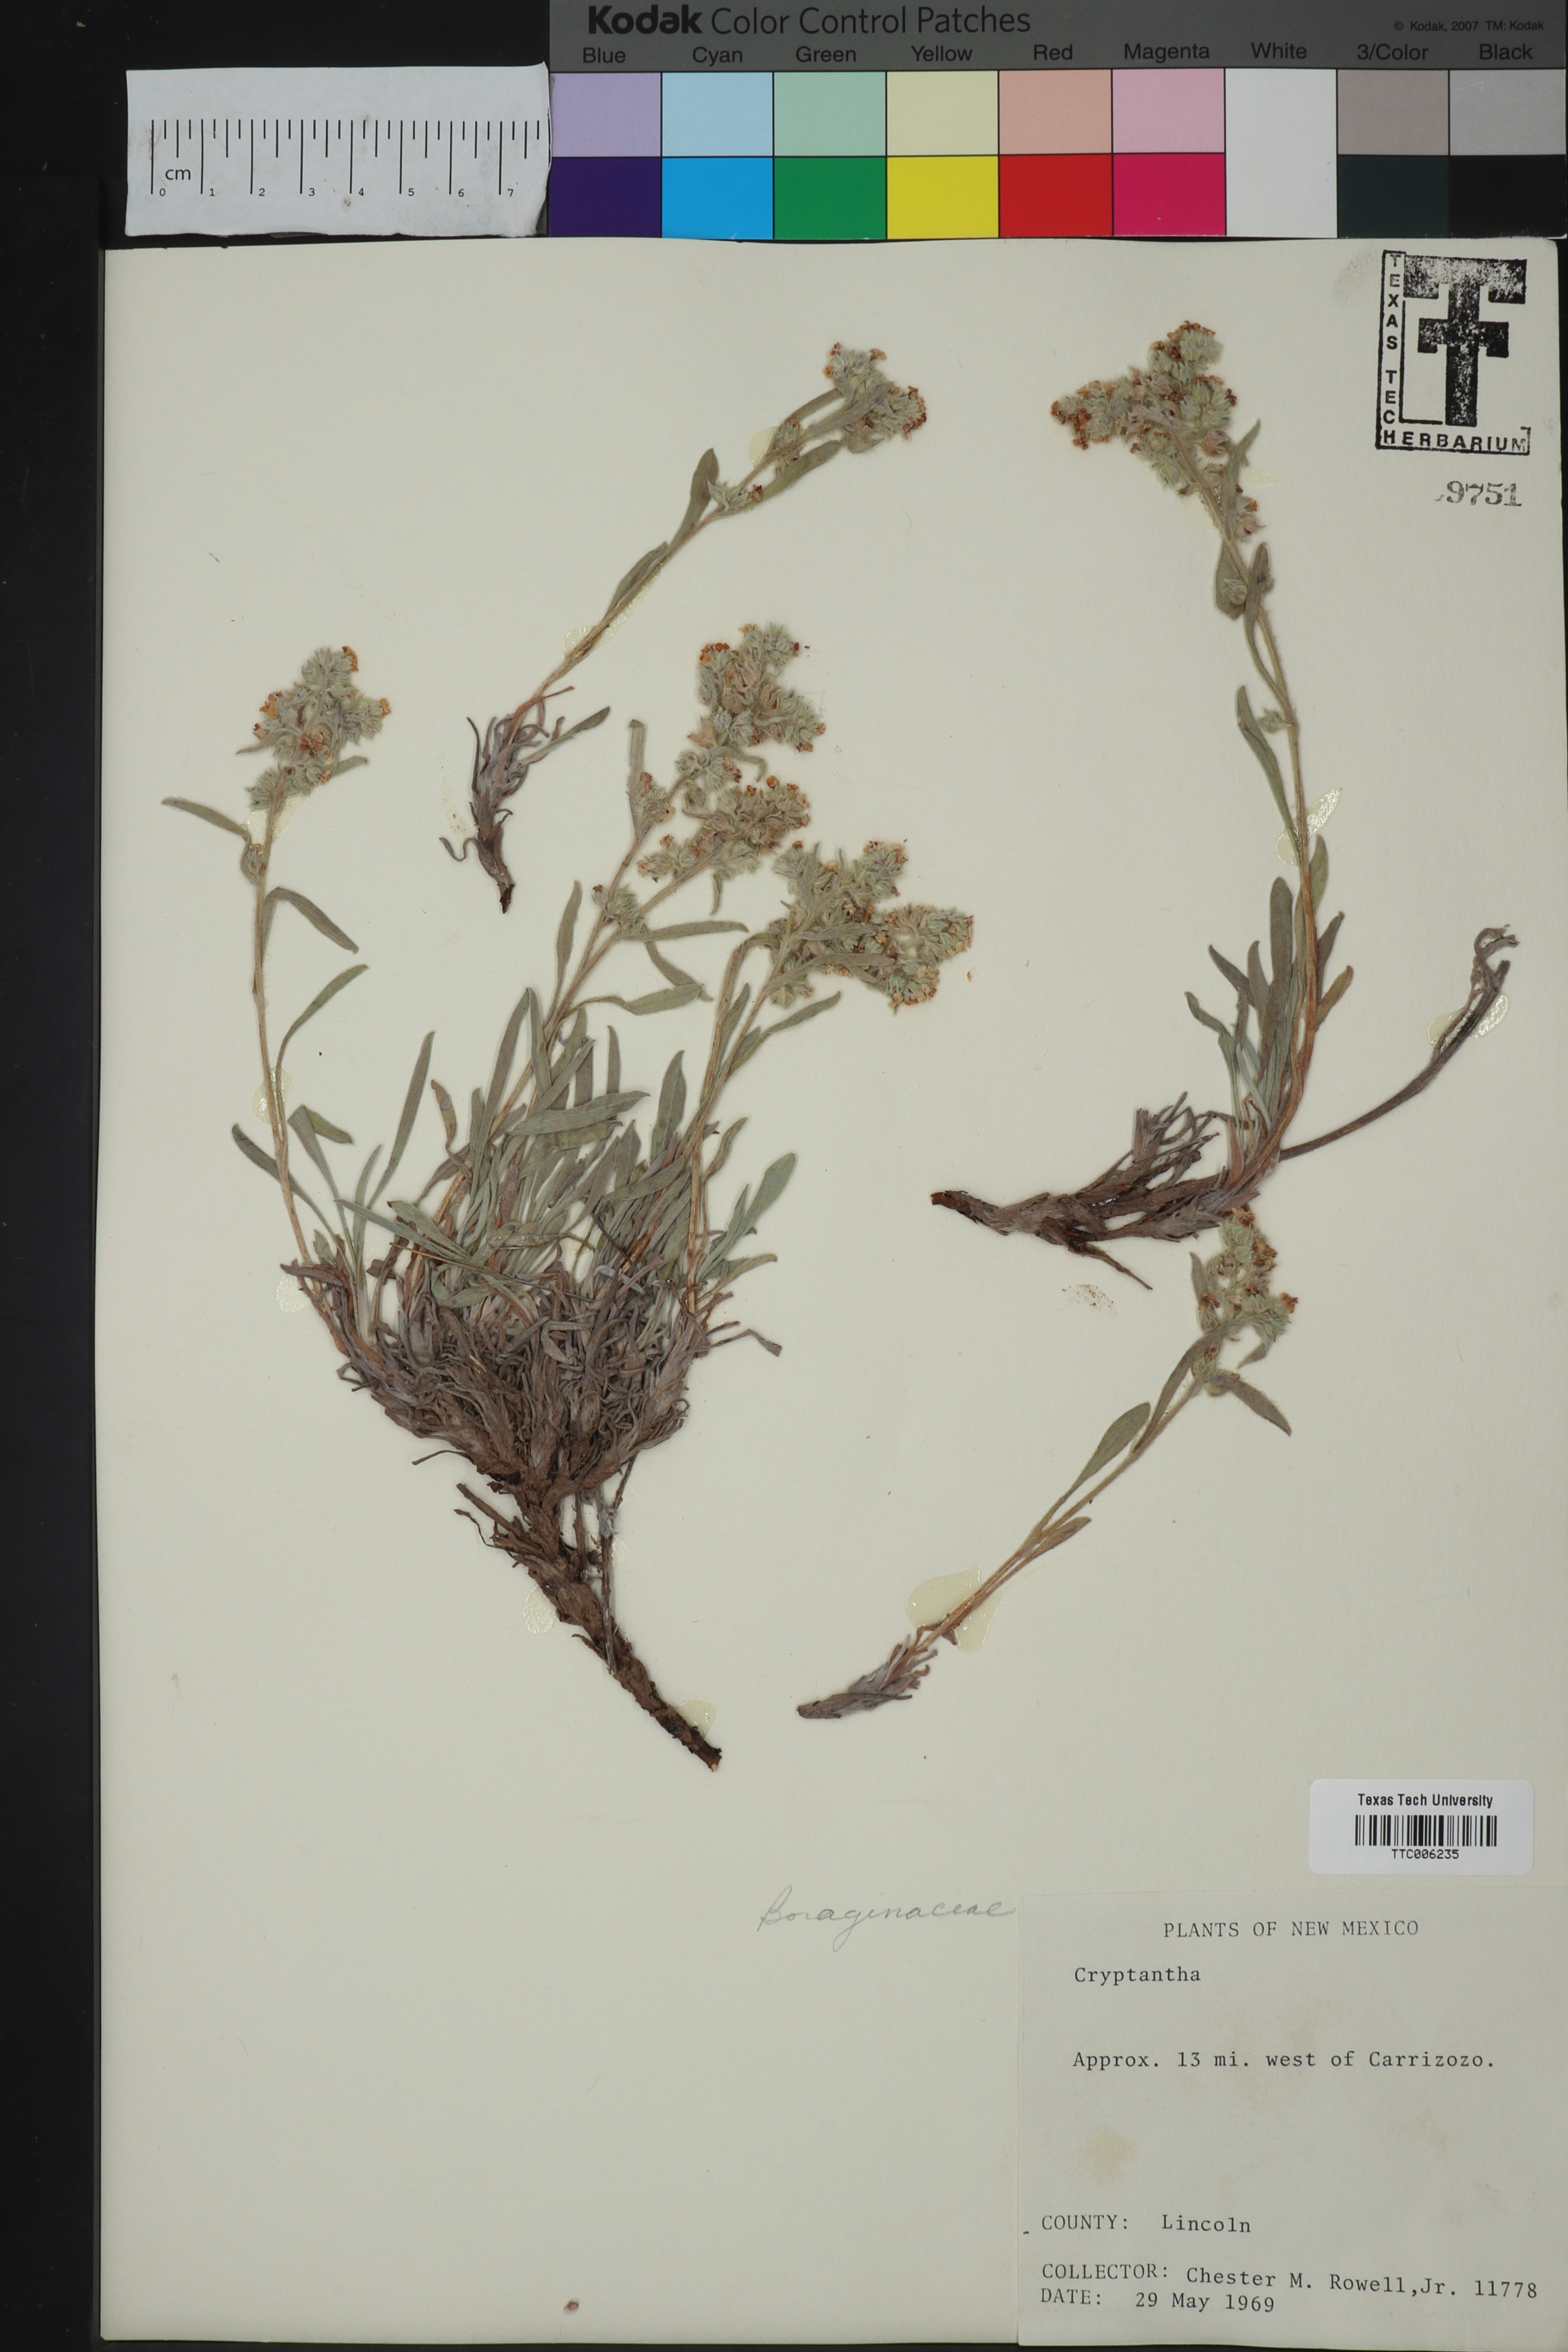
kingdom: Plantae
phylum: Tracheophyta
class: Magnoliopsida
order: Boraginales
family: Boraginaceae
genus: Cryptantha
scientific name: Cryptantha
